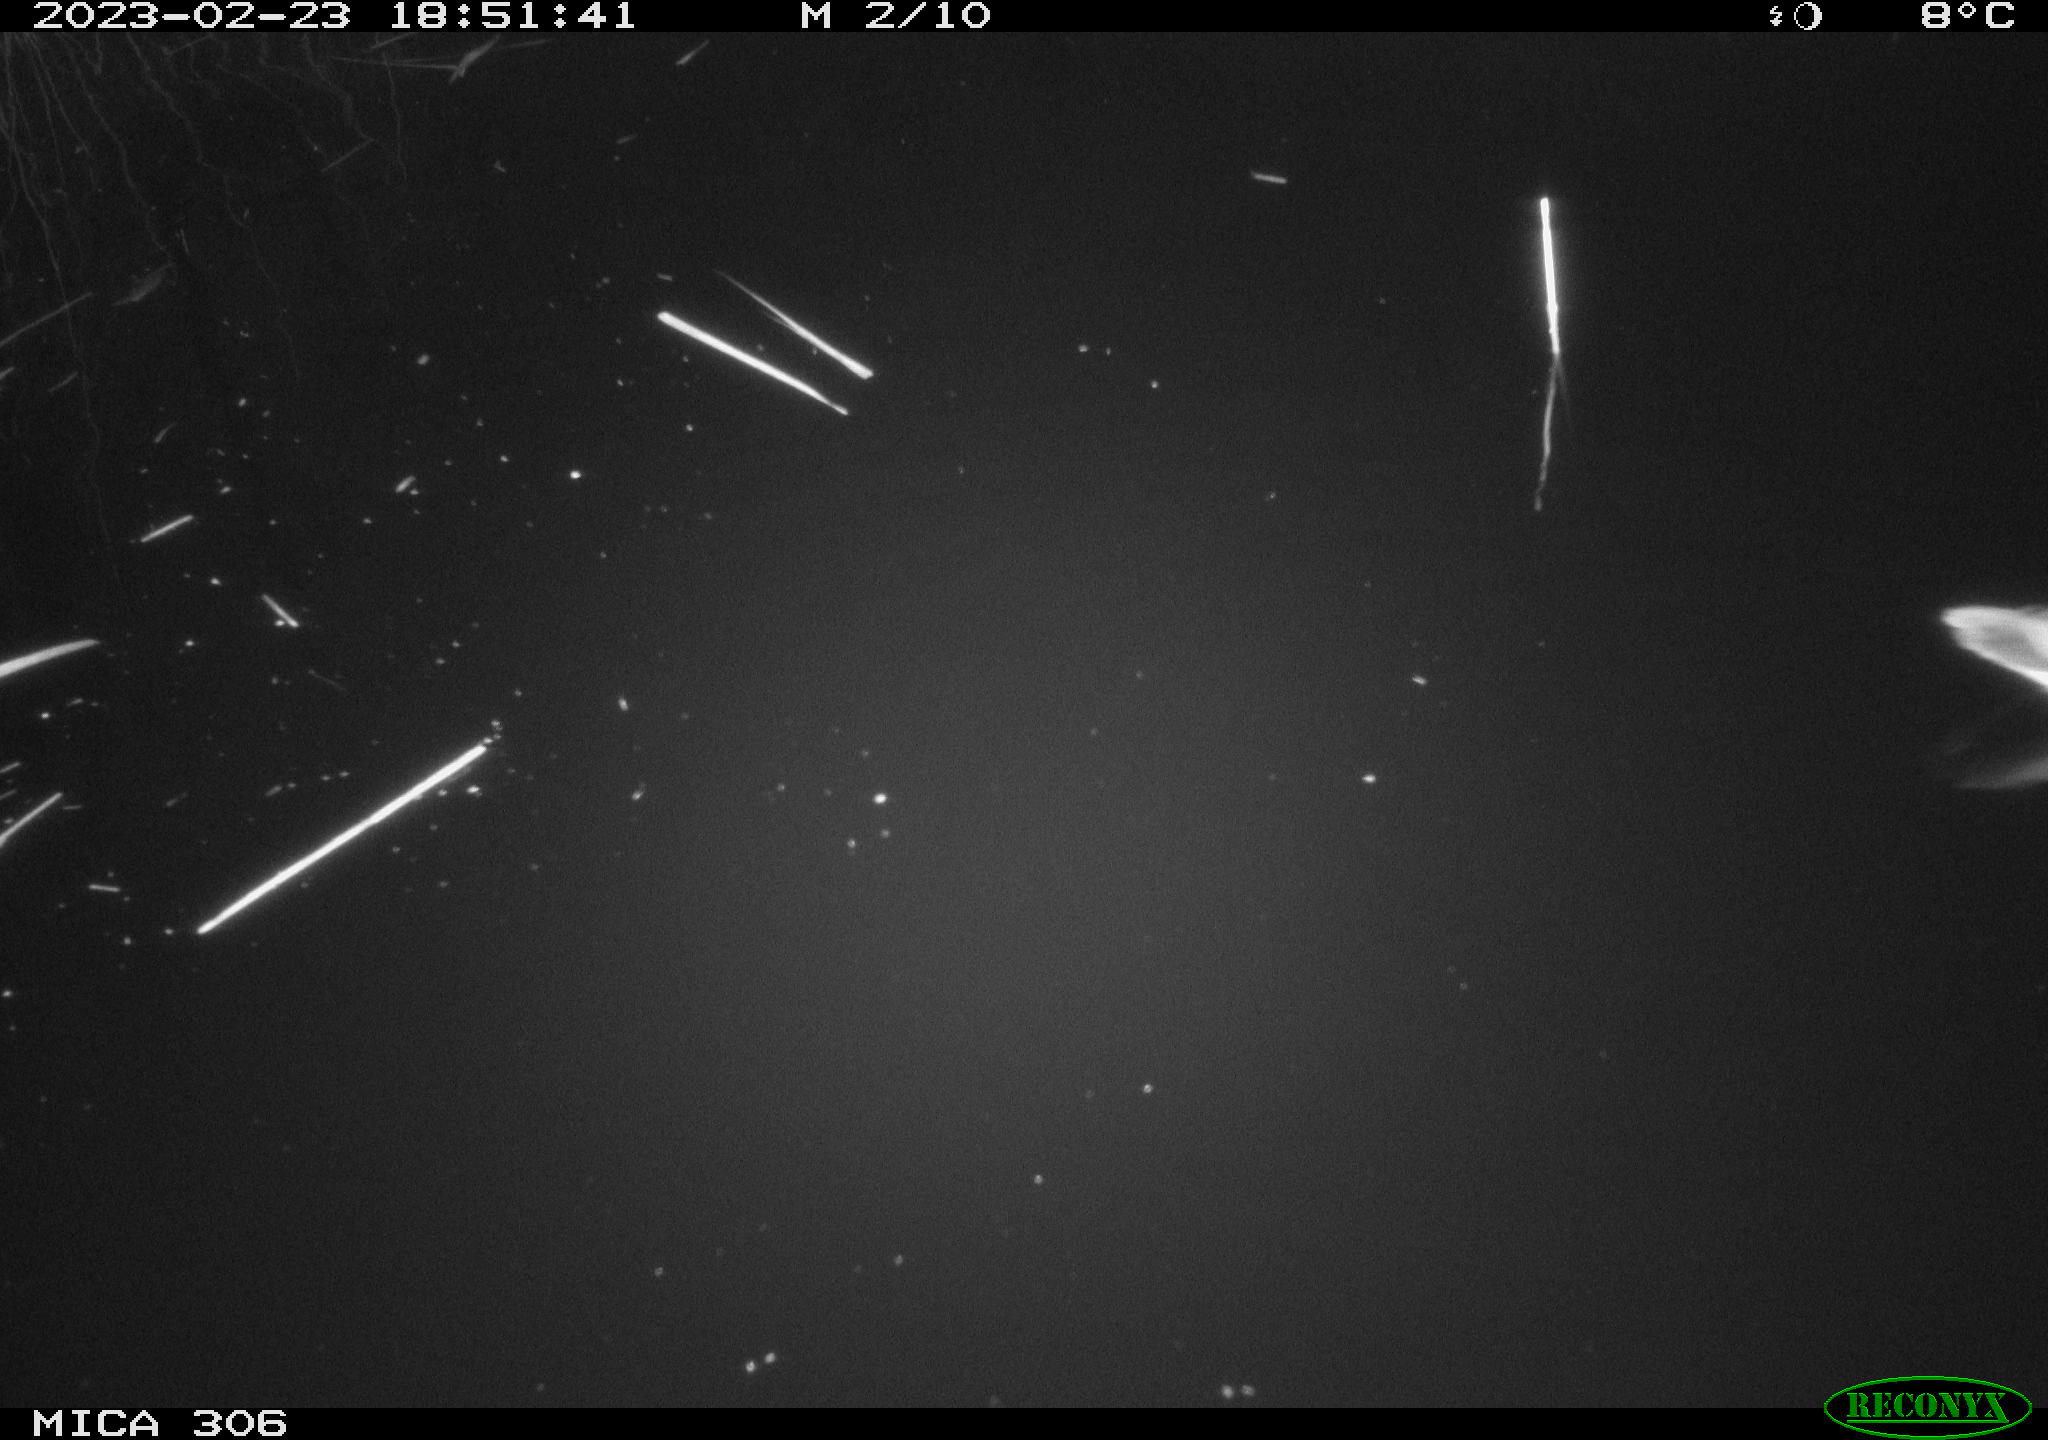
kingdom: Animalia
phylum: Chordata
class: Aves
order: Gruiformes
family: Rallidae
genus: Gallinula
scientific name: Gallinula chloropus
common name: Common moorhen
